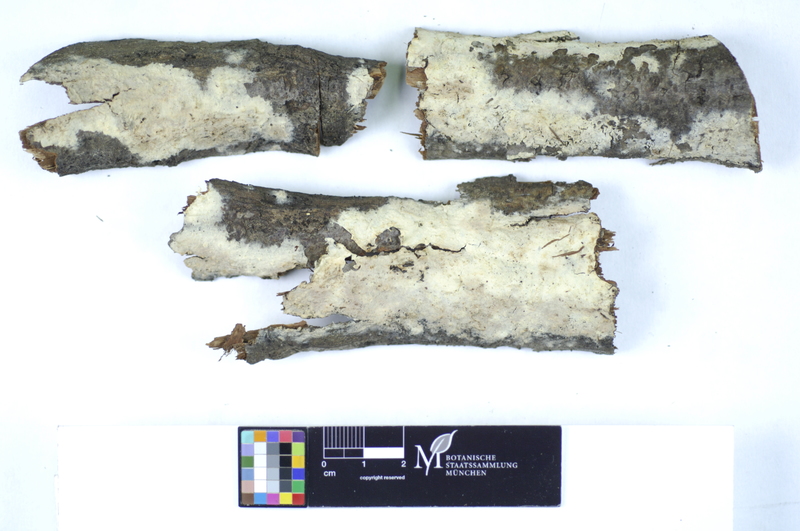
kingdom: Fungi
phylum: Basidiomycota
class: Agaricomycetes
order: Polyporales
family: Hyphodermataceae
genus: Hyphoderma
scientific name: Hyphoderma setigerum
